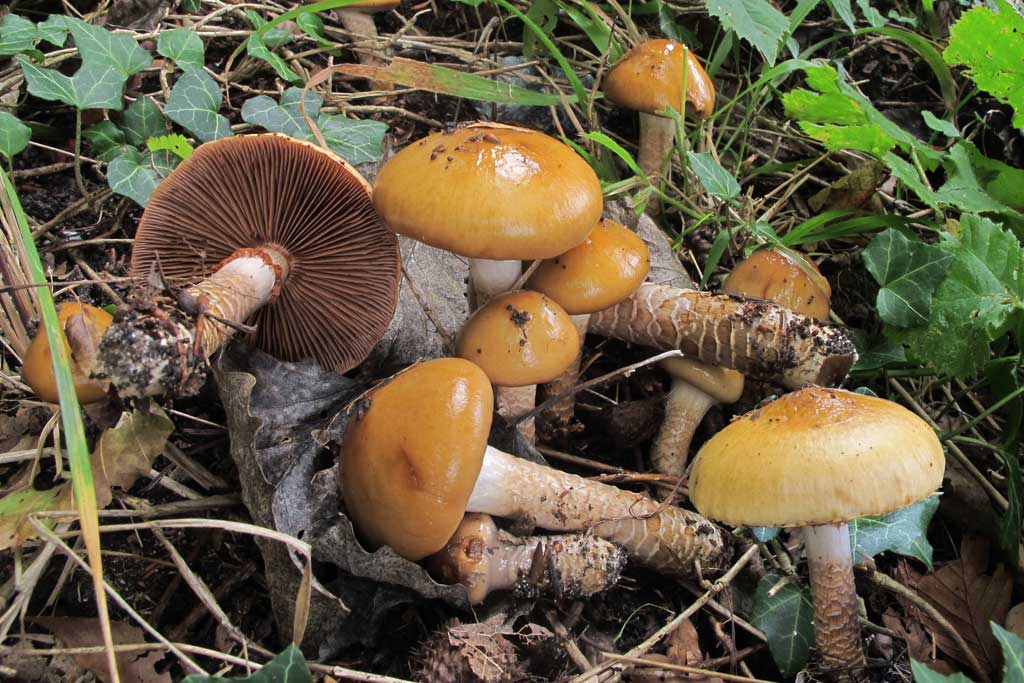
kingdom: Fungi
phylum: Basidiomycota
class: Agaricomycetes
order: Agaricales
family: Cortinariaceae
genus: Cortinarius
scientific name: Cortinarius trivialis
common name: brunslimet slørhat
